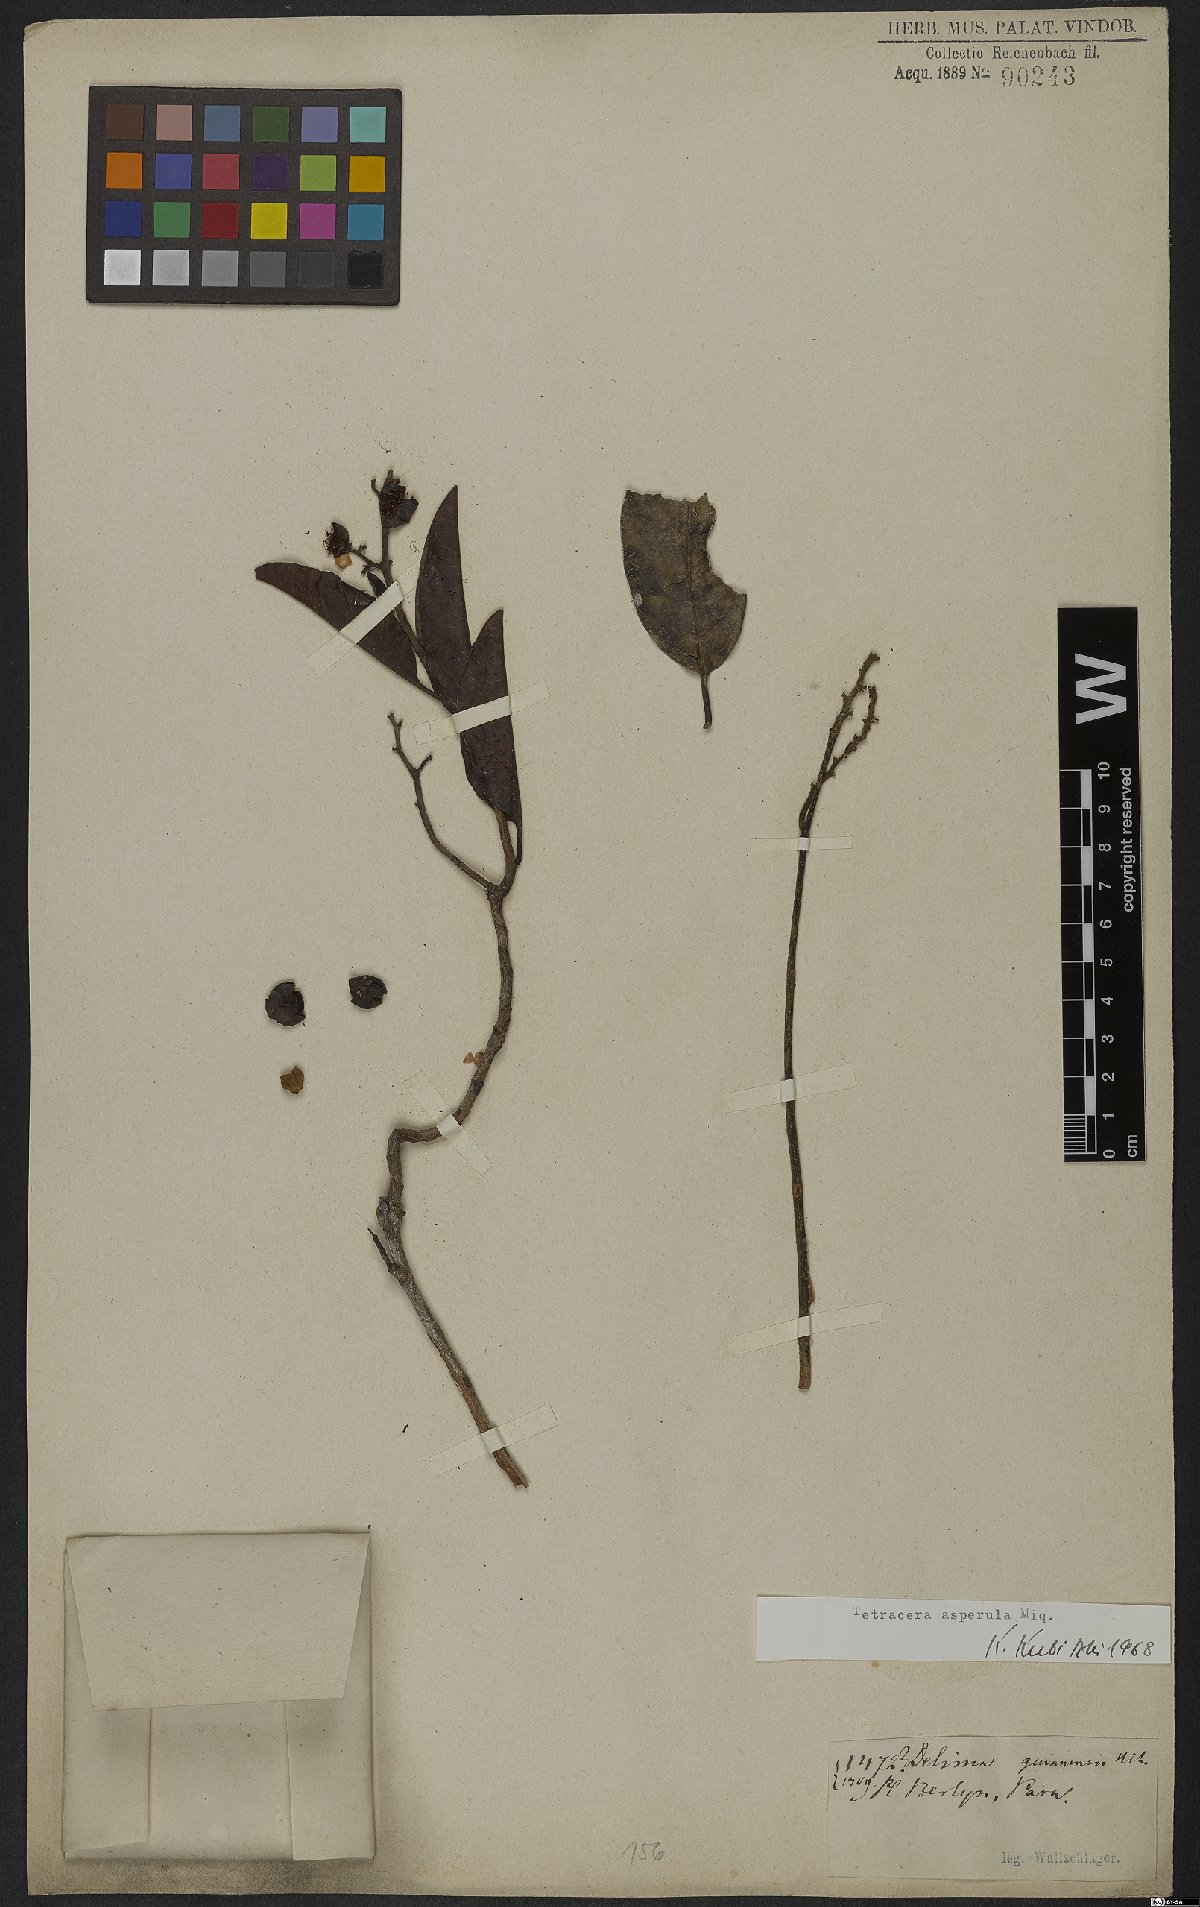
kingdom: Plantae
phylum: Tracheophyta
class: Magnoliopsida
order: Dilleniales
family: Dilleniaceae
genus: Tetracera
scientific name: Tetracera asperula
